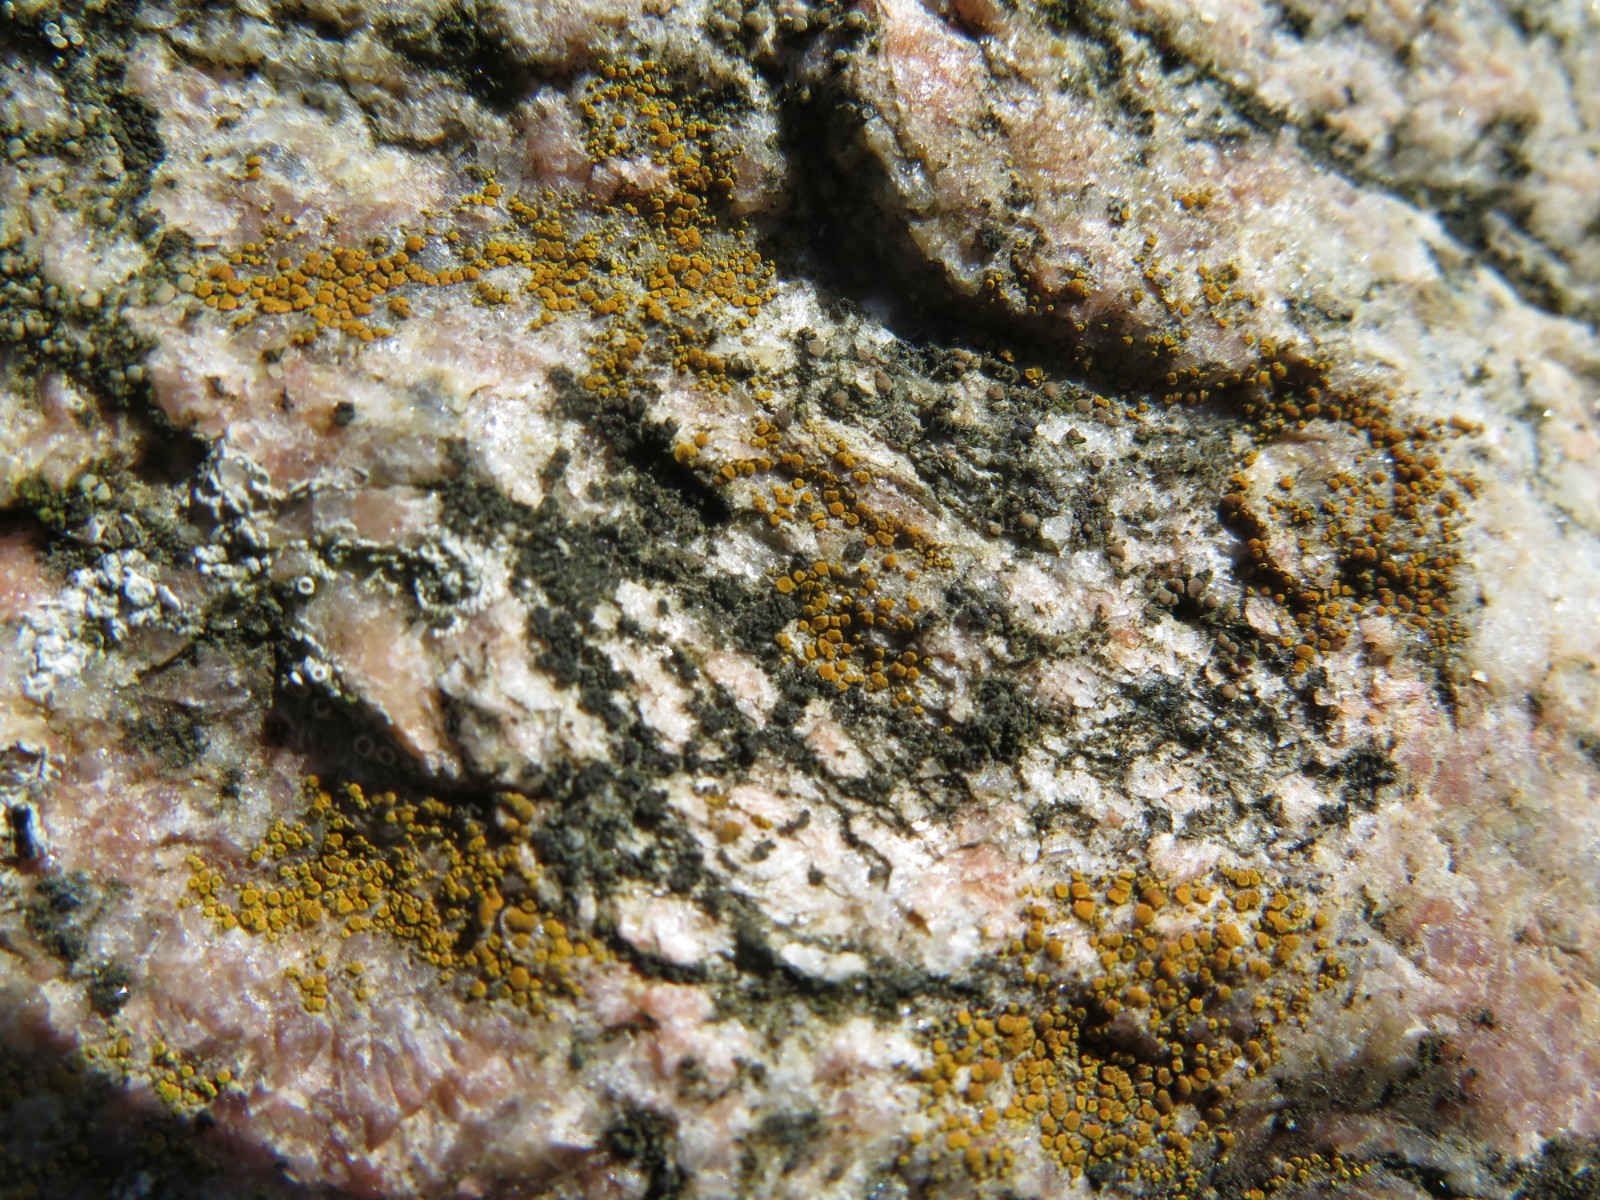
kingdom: Fungi
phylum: Ascomycota
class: Lecanoromycetes
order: Acarosporales
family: Acarosporaceae
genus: Acarospora
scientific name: Acarospora privigna
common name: sort foldekantlav
